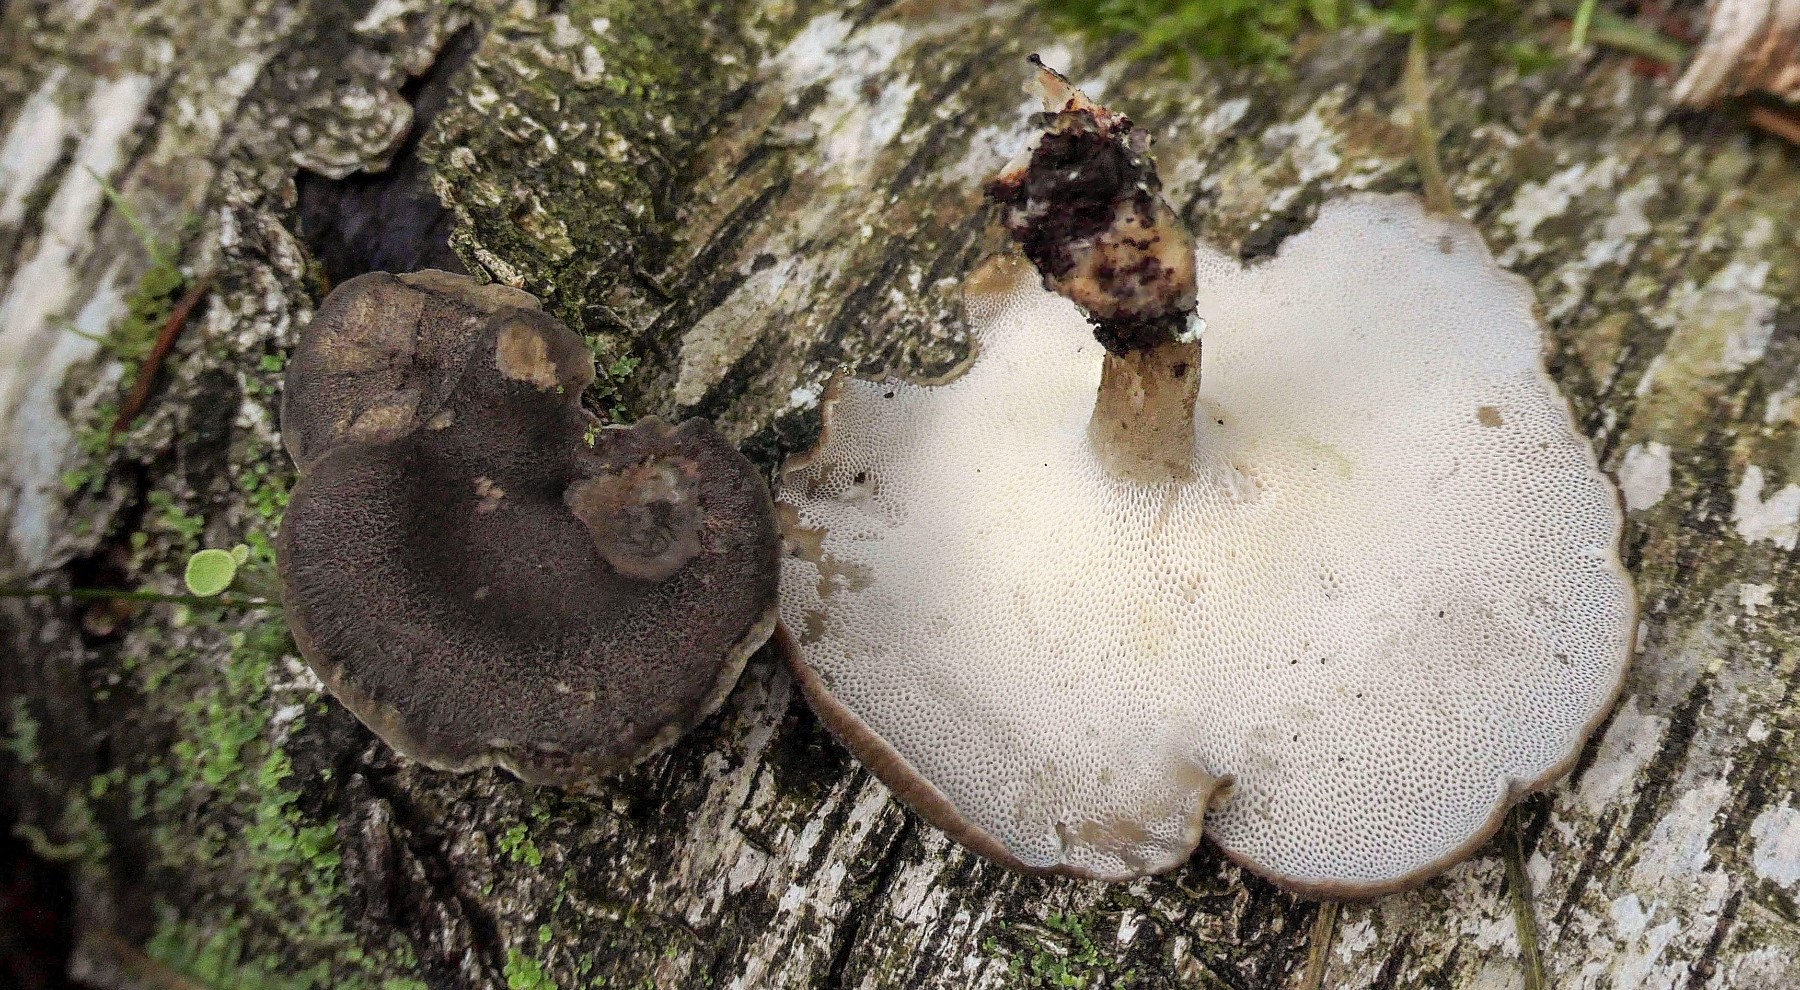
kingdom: Fungi
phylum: Basidiomycota
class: Agaricomycetes
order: Polyporales
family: Polyporaceae
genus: Lentinus
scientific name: Lentinus brumalis
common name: vinter-stilkporesvamp
